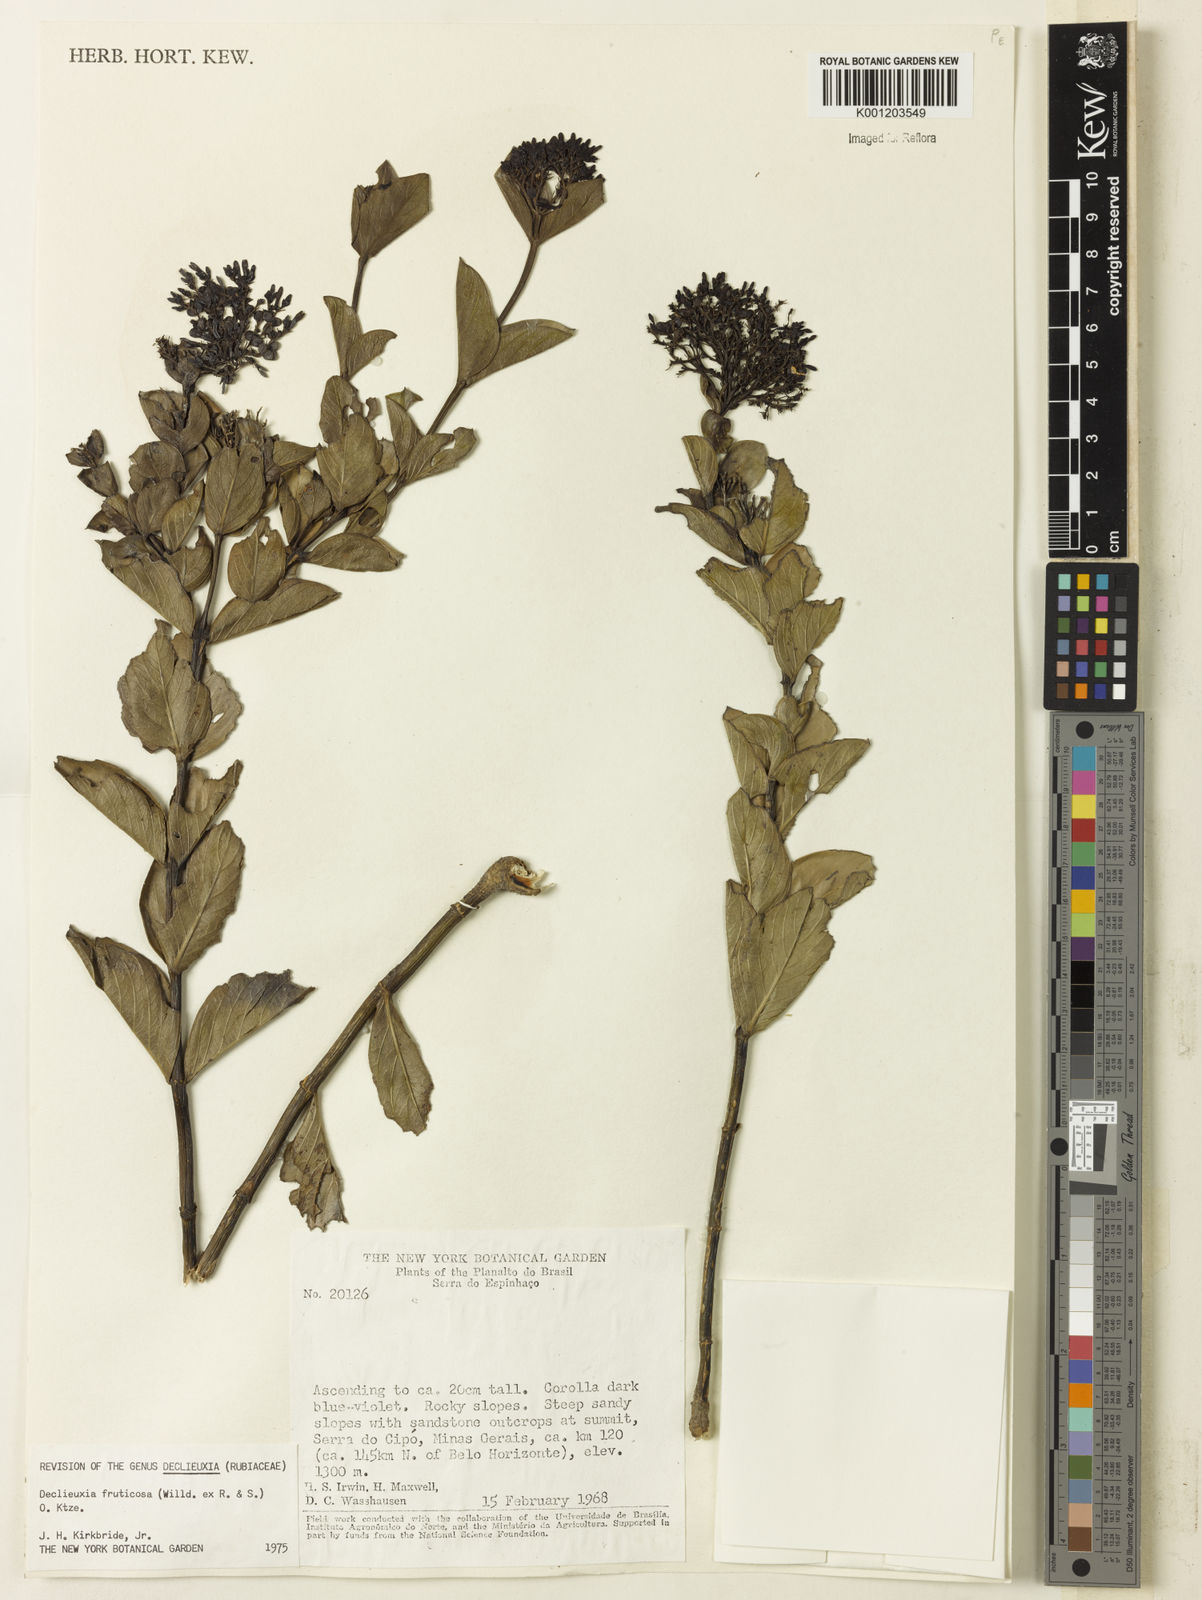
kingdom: Plantae
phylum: Tracheophyta
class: Magnoliopsida
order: Gentianales
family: Rubiaceae
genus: Declieuxia
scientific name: Declieuxia fruticosa
